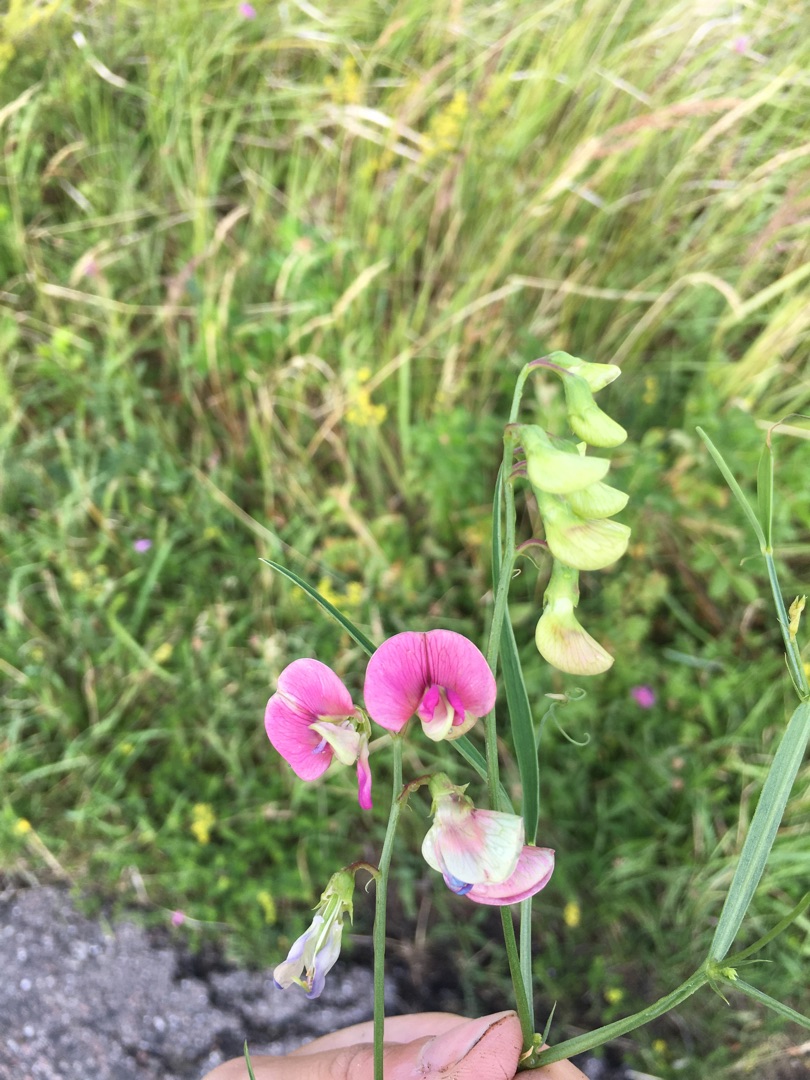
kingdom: Plantae
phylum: Tracheophyta
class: Magnoliopsida
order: Fabales
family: Fabaceae
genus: Lathyrus
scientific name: Lathyrus sylvestris
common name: Skov-fladbælg
